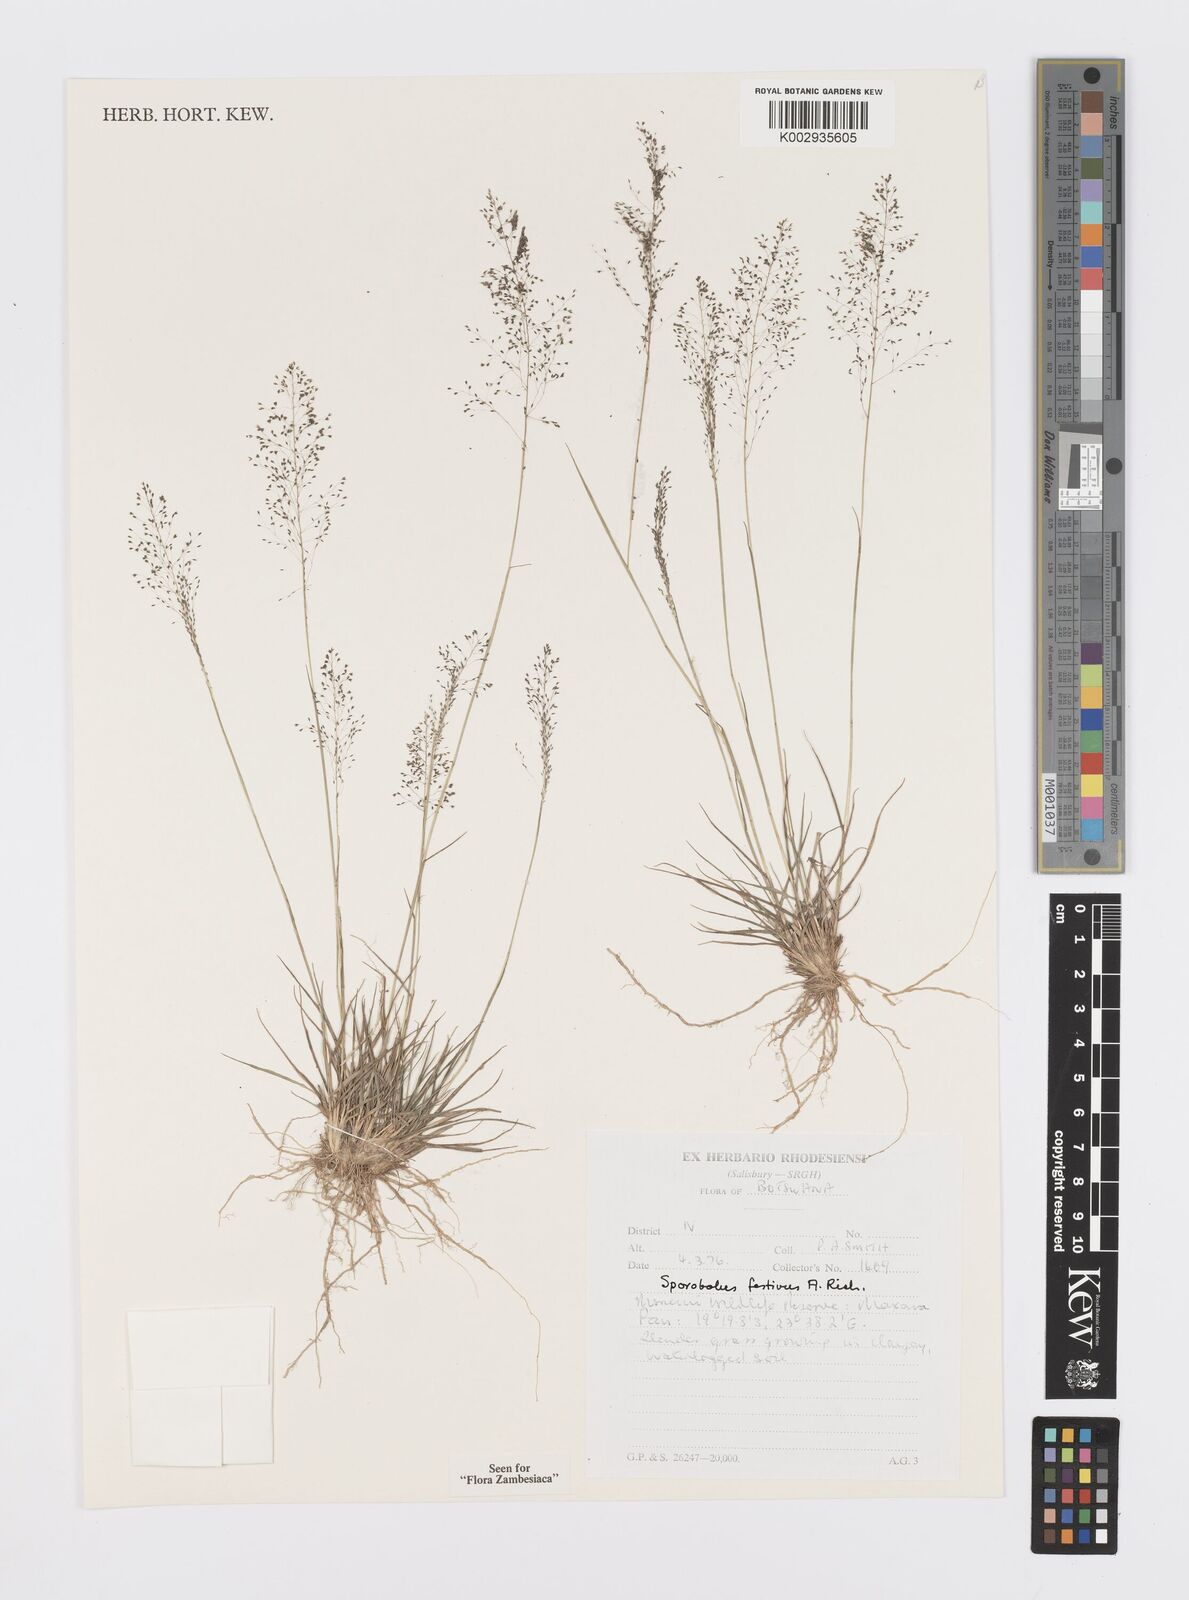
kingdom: Plantae
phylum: Tracheophyta
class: Liliopsida
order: Poales
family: Poaceae
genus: Sporobolus
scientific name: Sporobolus festivus
